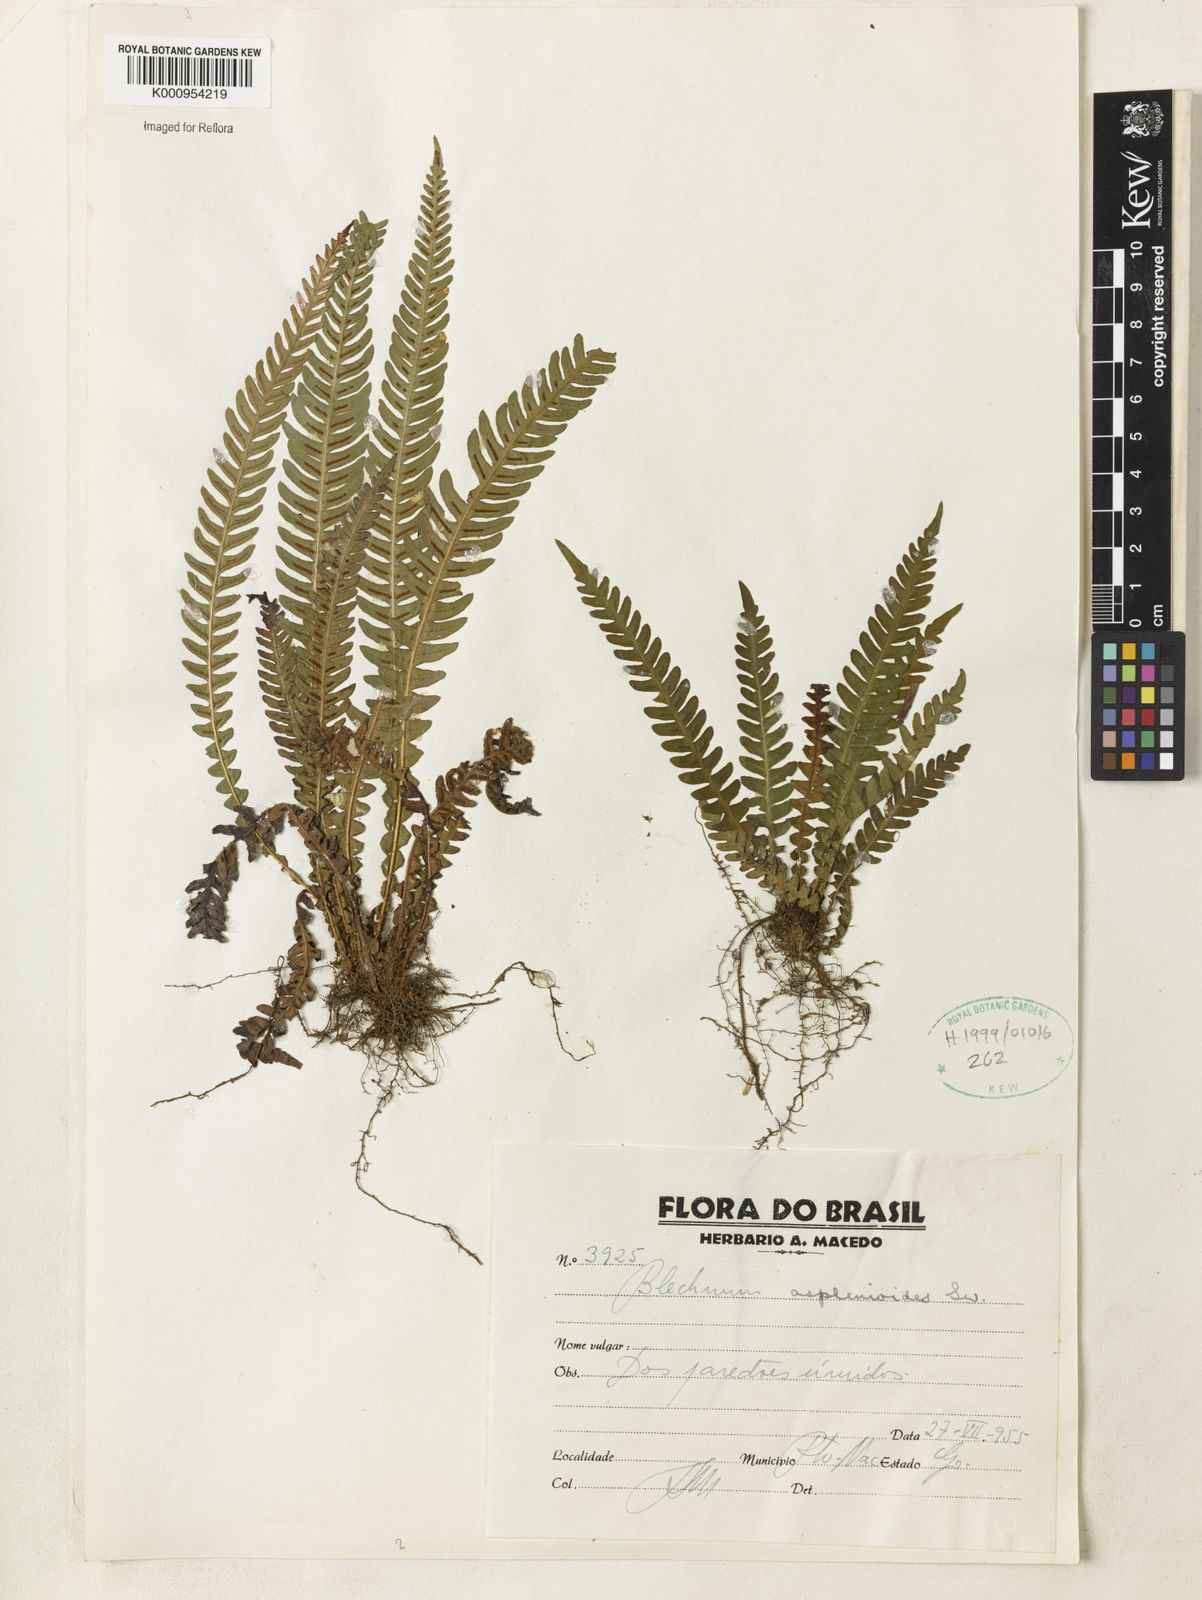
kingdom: Plantae
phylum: Tracheophyta
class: Polypodiopsida
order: Polypodiales
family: Blechnaceae
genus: Blechnum
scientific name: Blechnum asplenioides
